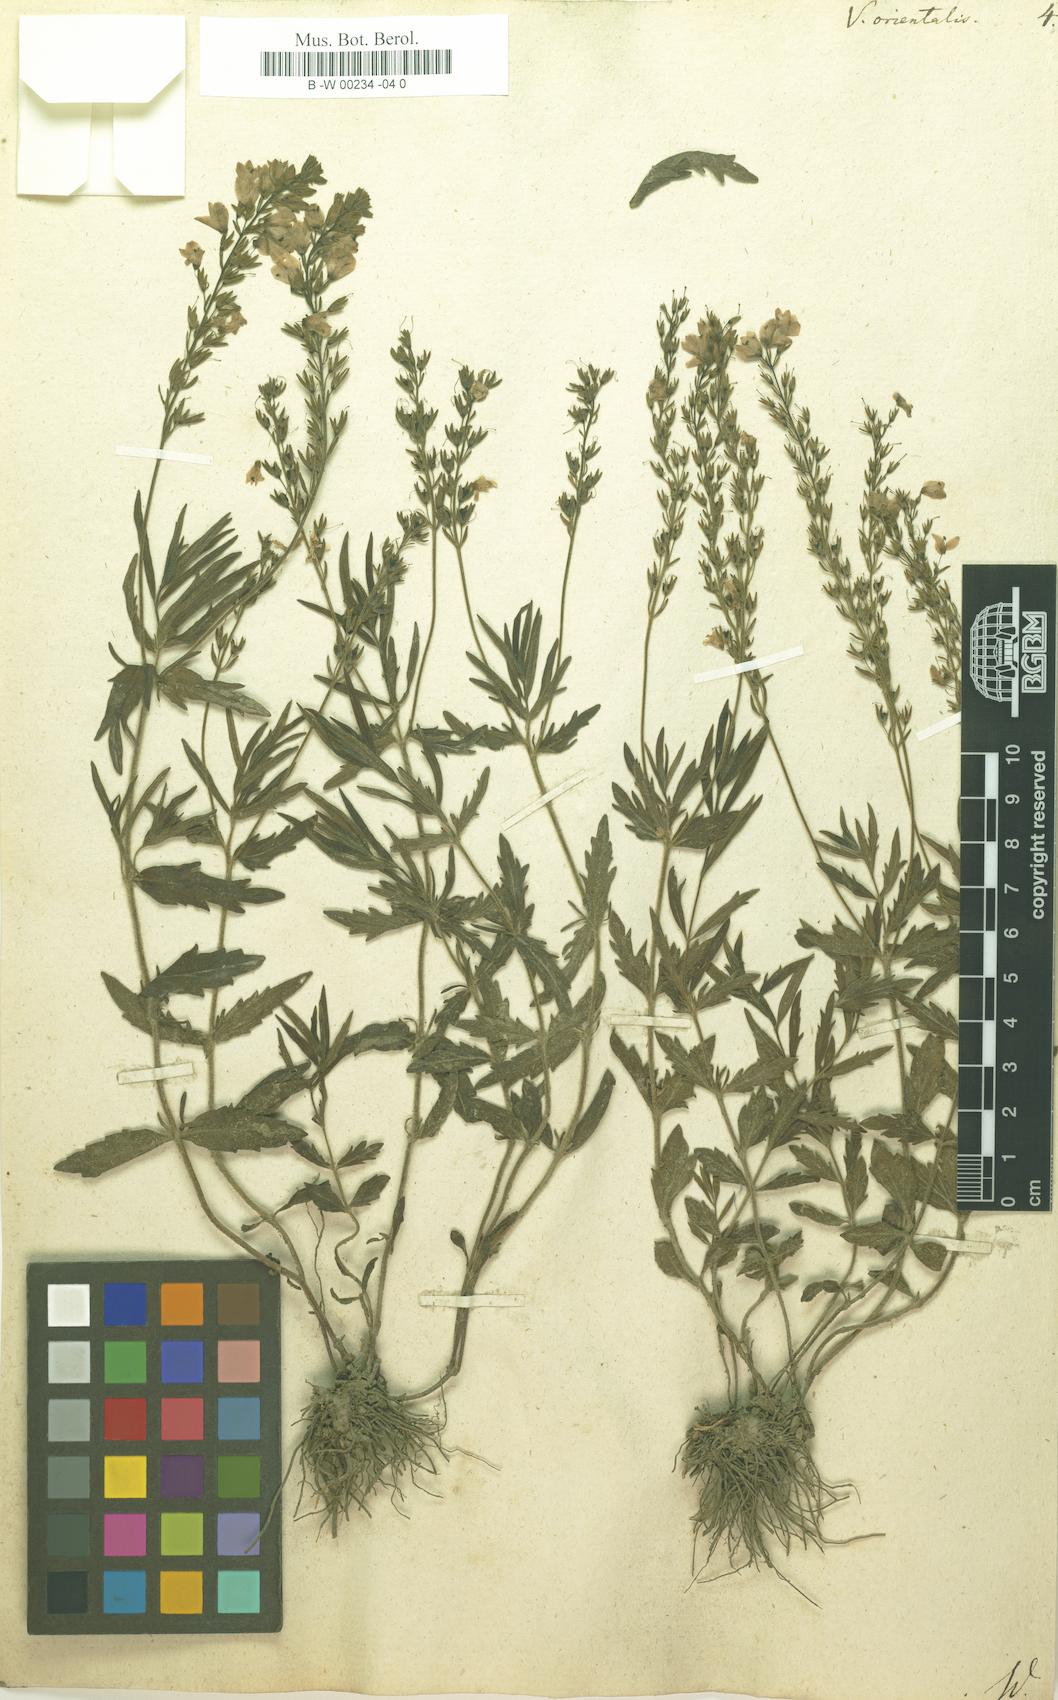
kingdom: Plantae
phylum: Tracheophyta
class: Magnoliopsida
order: Lamiales
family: Plantaginaceae
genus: Veronica
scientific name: Veronica orientalis
